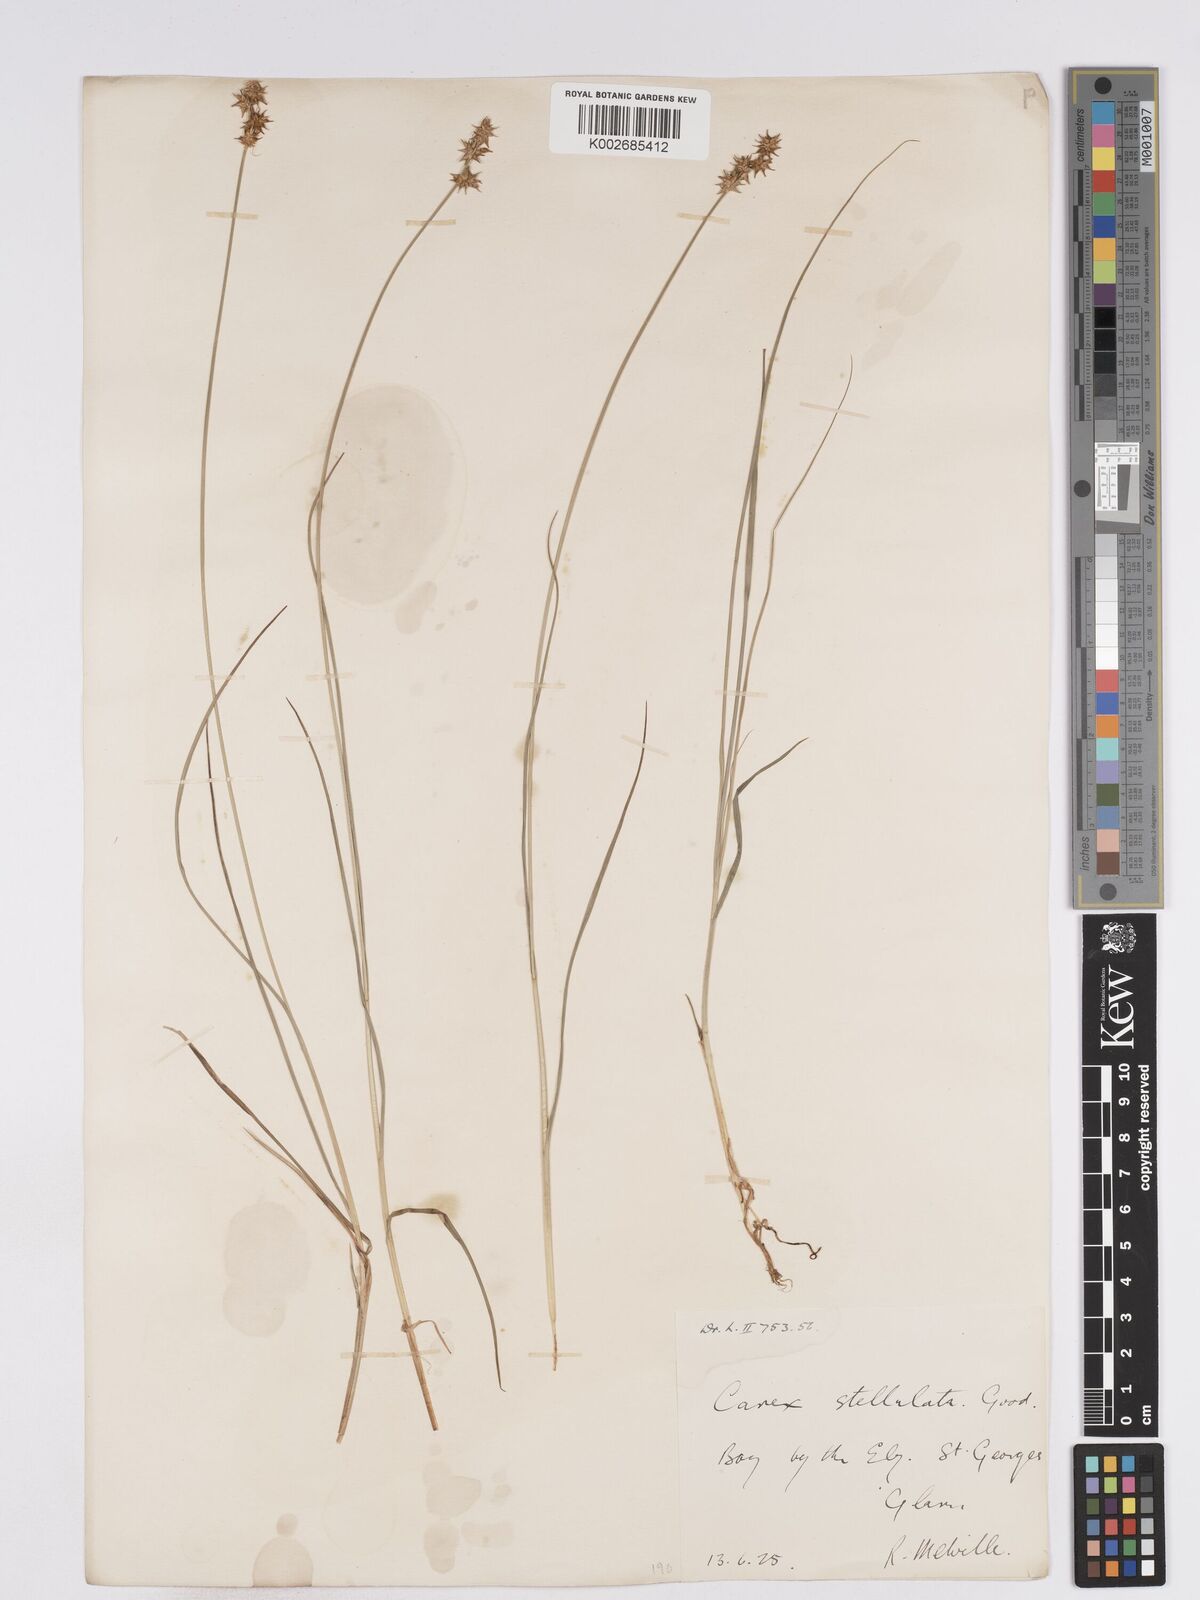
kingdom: Plantae
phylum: Tracheophyta
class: Liliopsida
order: Poales
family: Cyperaceae
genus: Carex
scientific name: Carex echinata
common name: Star sedge
